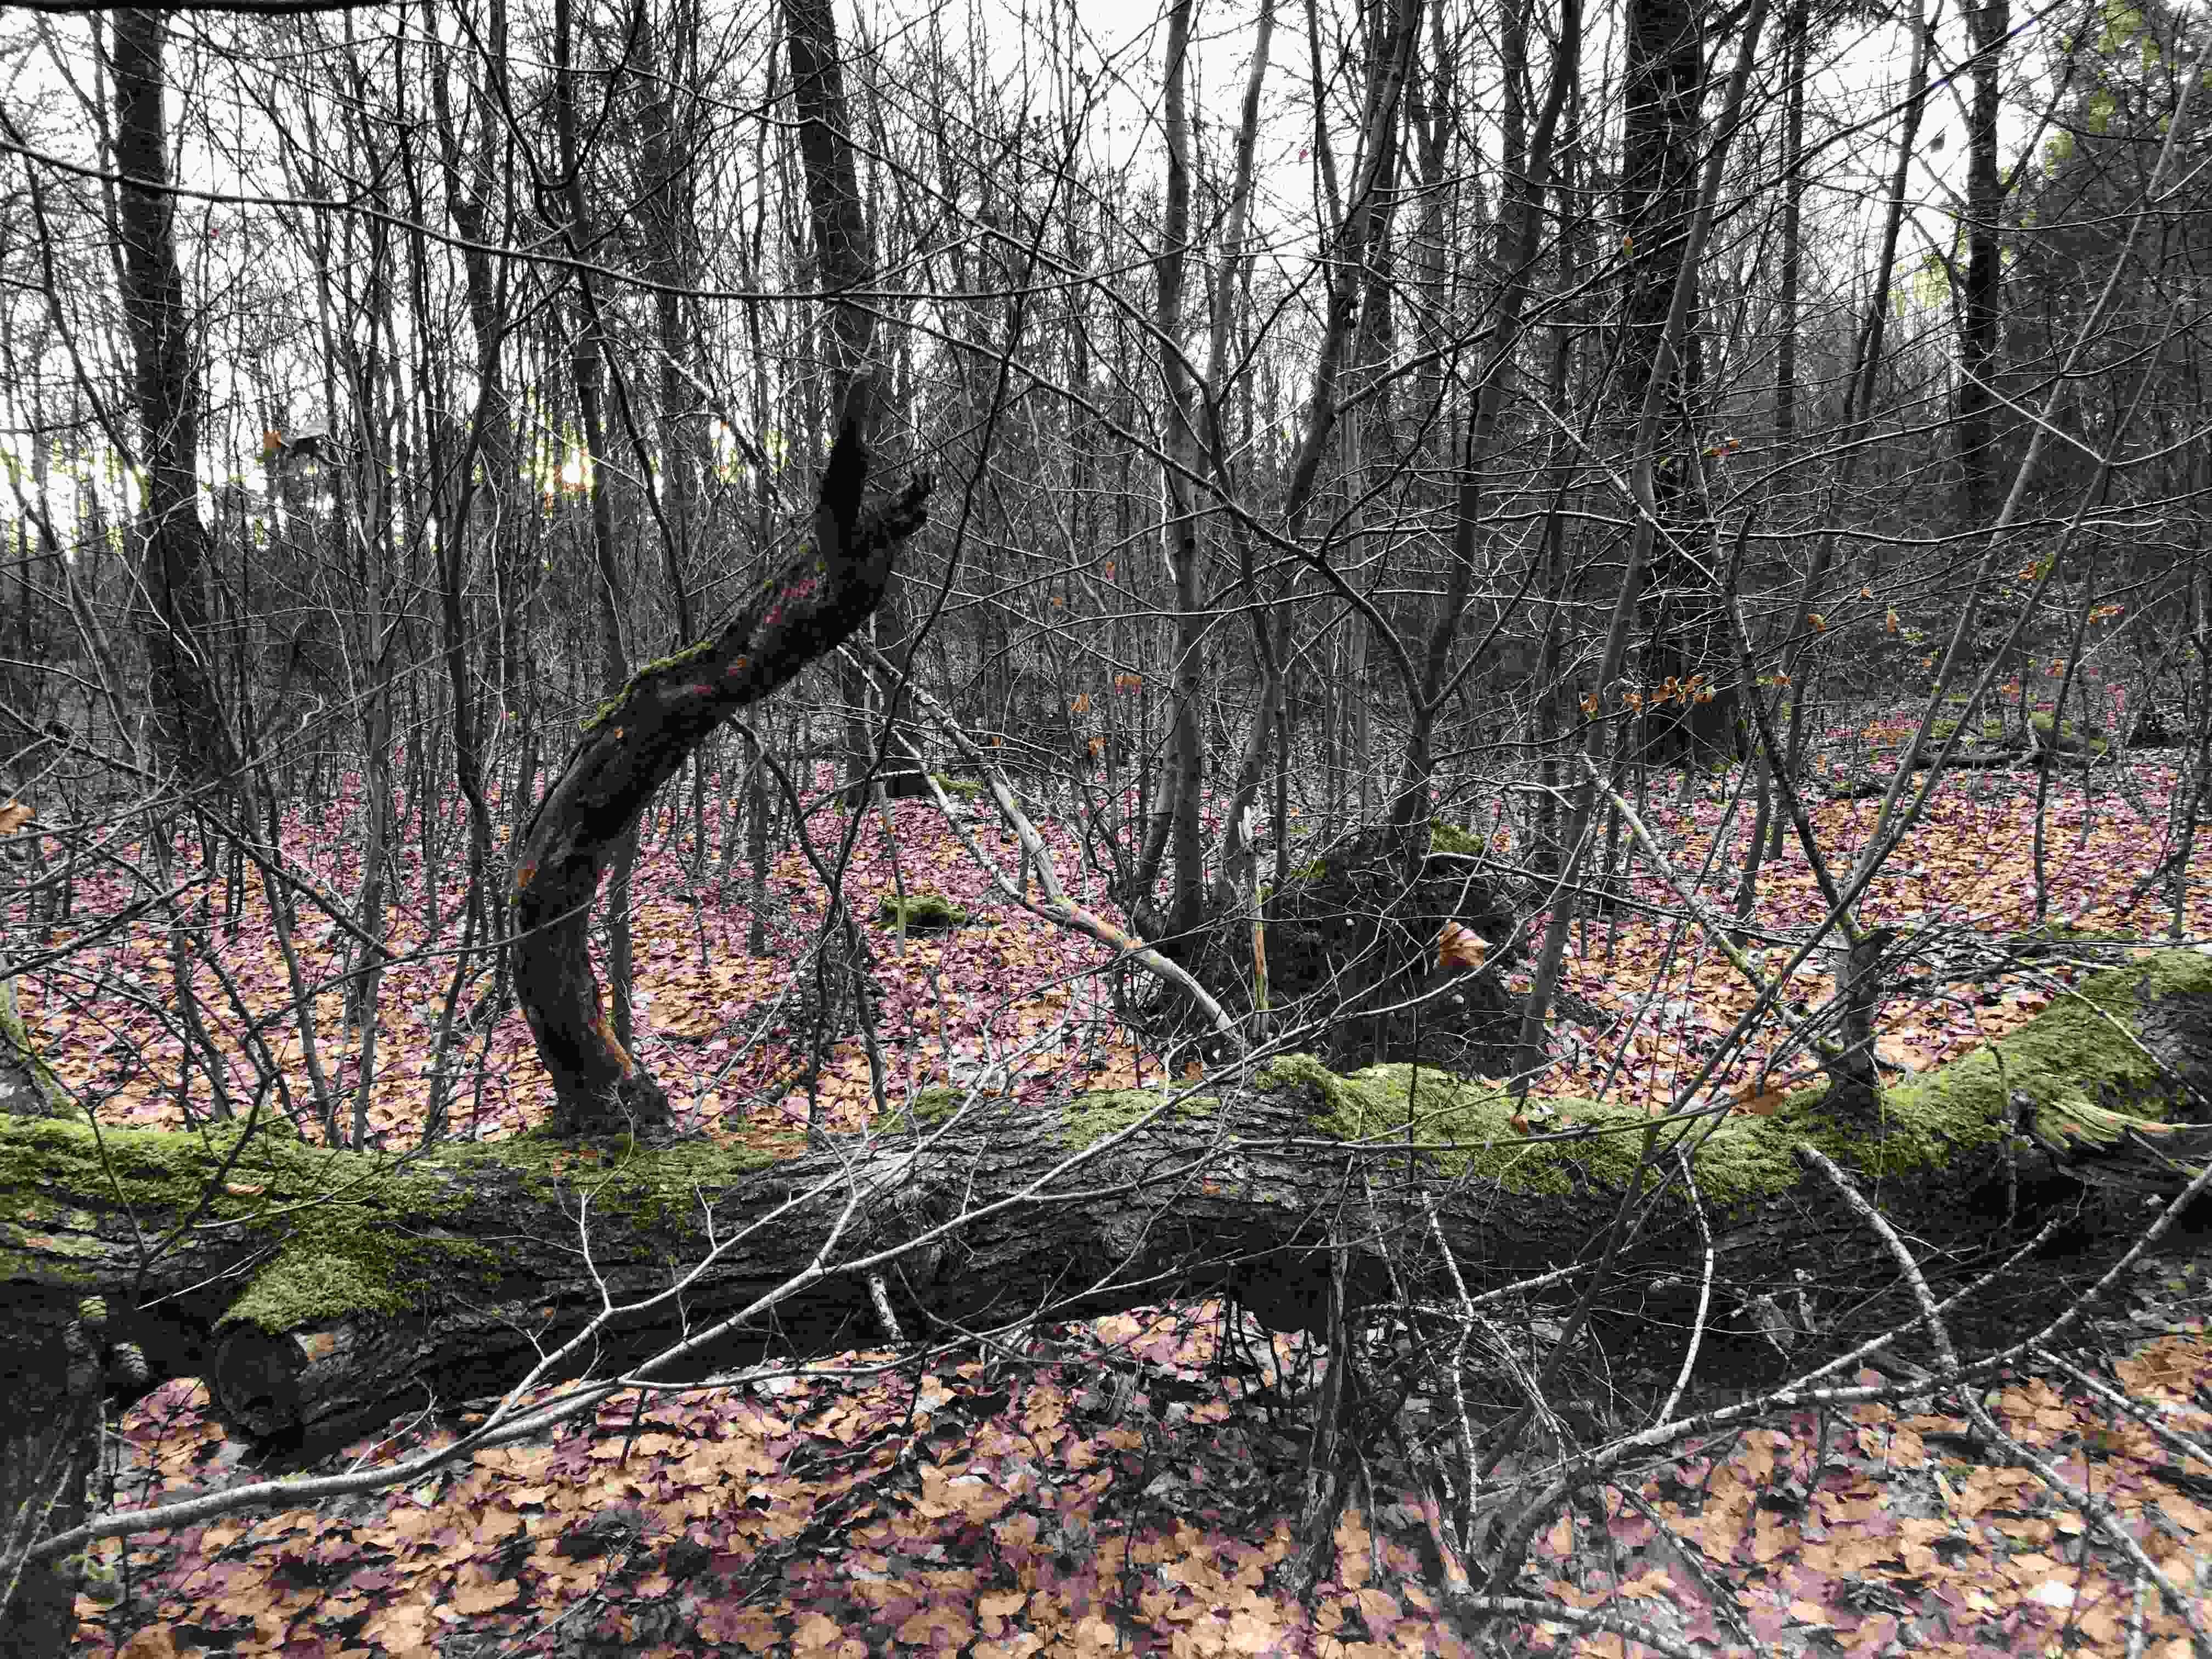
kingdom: Fungi
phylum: Basidiomycota
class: Agaricomycetes
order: Agaricales
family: Sarcomyxaceae
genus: Sarcomyxa
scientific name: Sarcomyxa serotina
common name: gummihat
